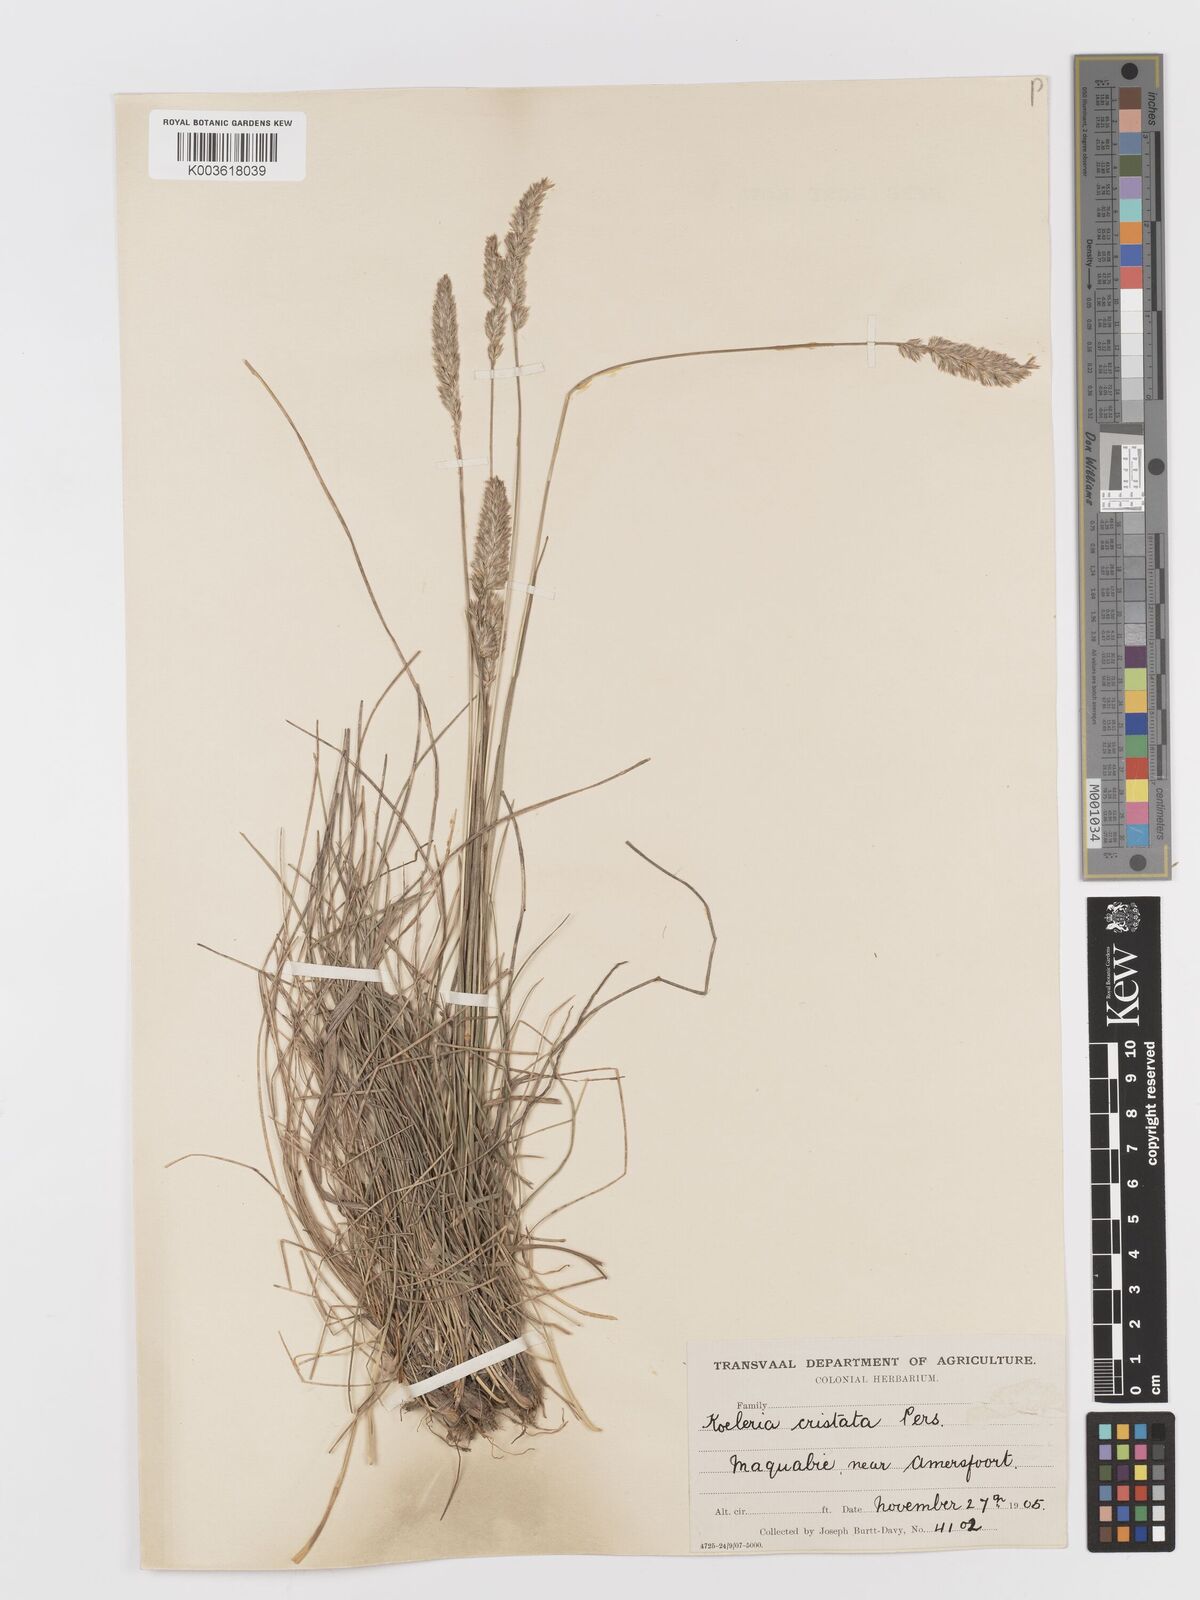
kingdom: Plantae
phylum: Tracheophyta
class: Liliopsida
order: Poales
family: Poaceae
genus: Koeleria
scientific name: Koeleria capensis
